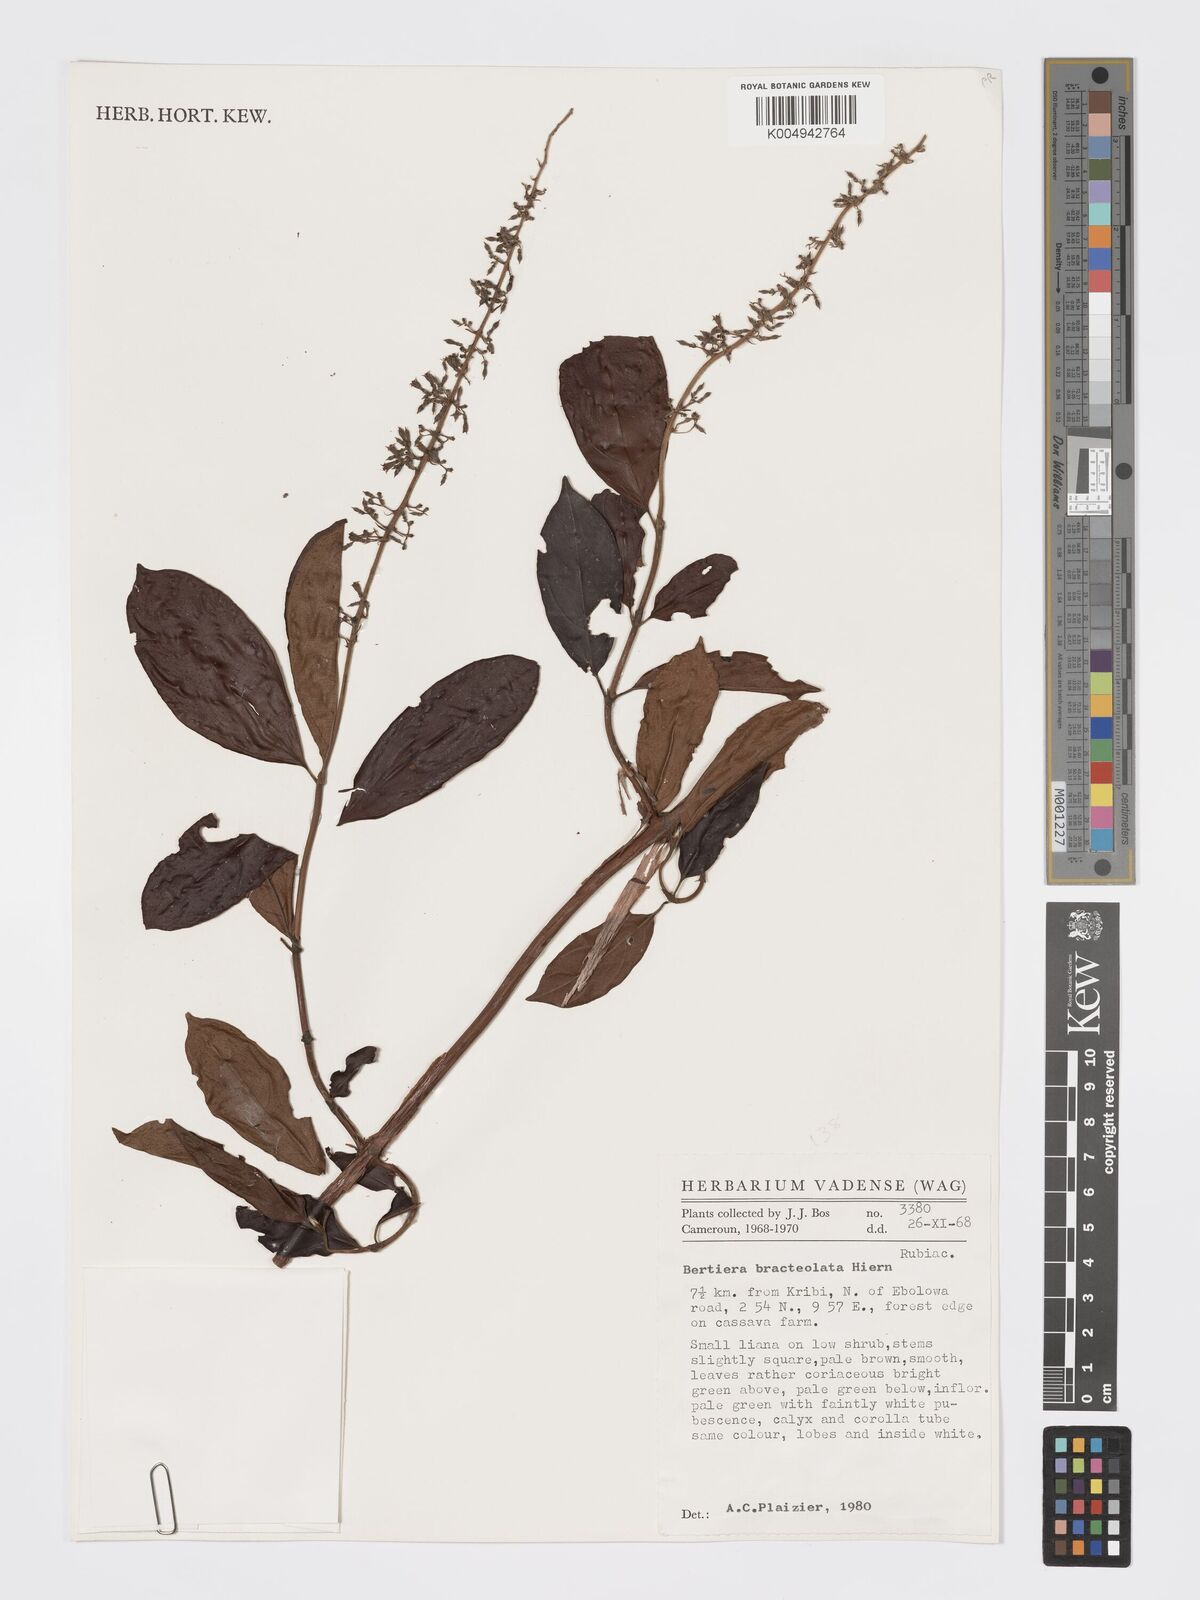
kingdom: Plantae
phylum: Tracheophyta
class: Magnoliopsida
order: Gentianales
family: Rubiaceae
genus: Bertiera
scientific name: Bertiera bracteolata
